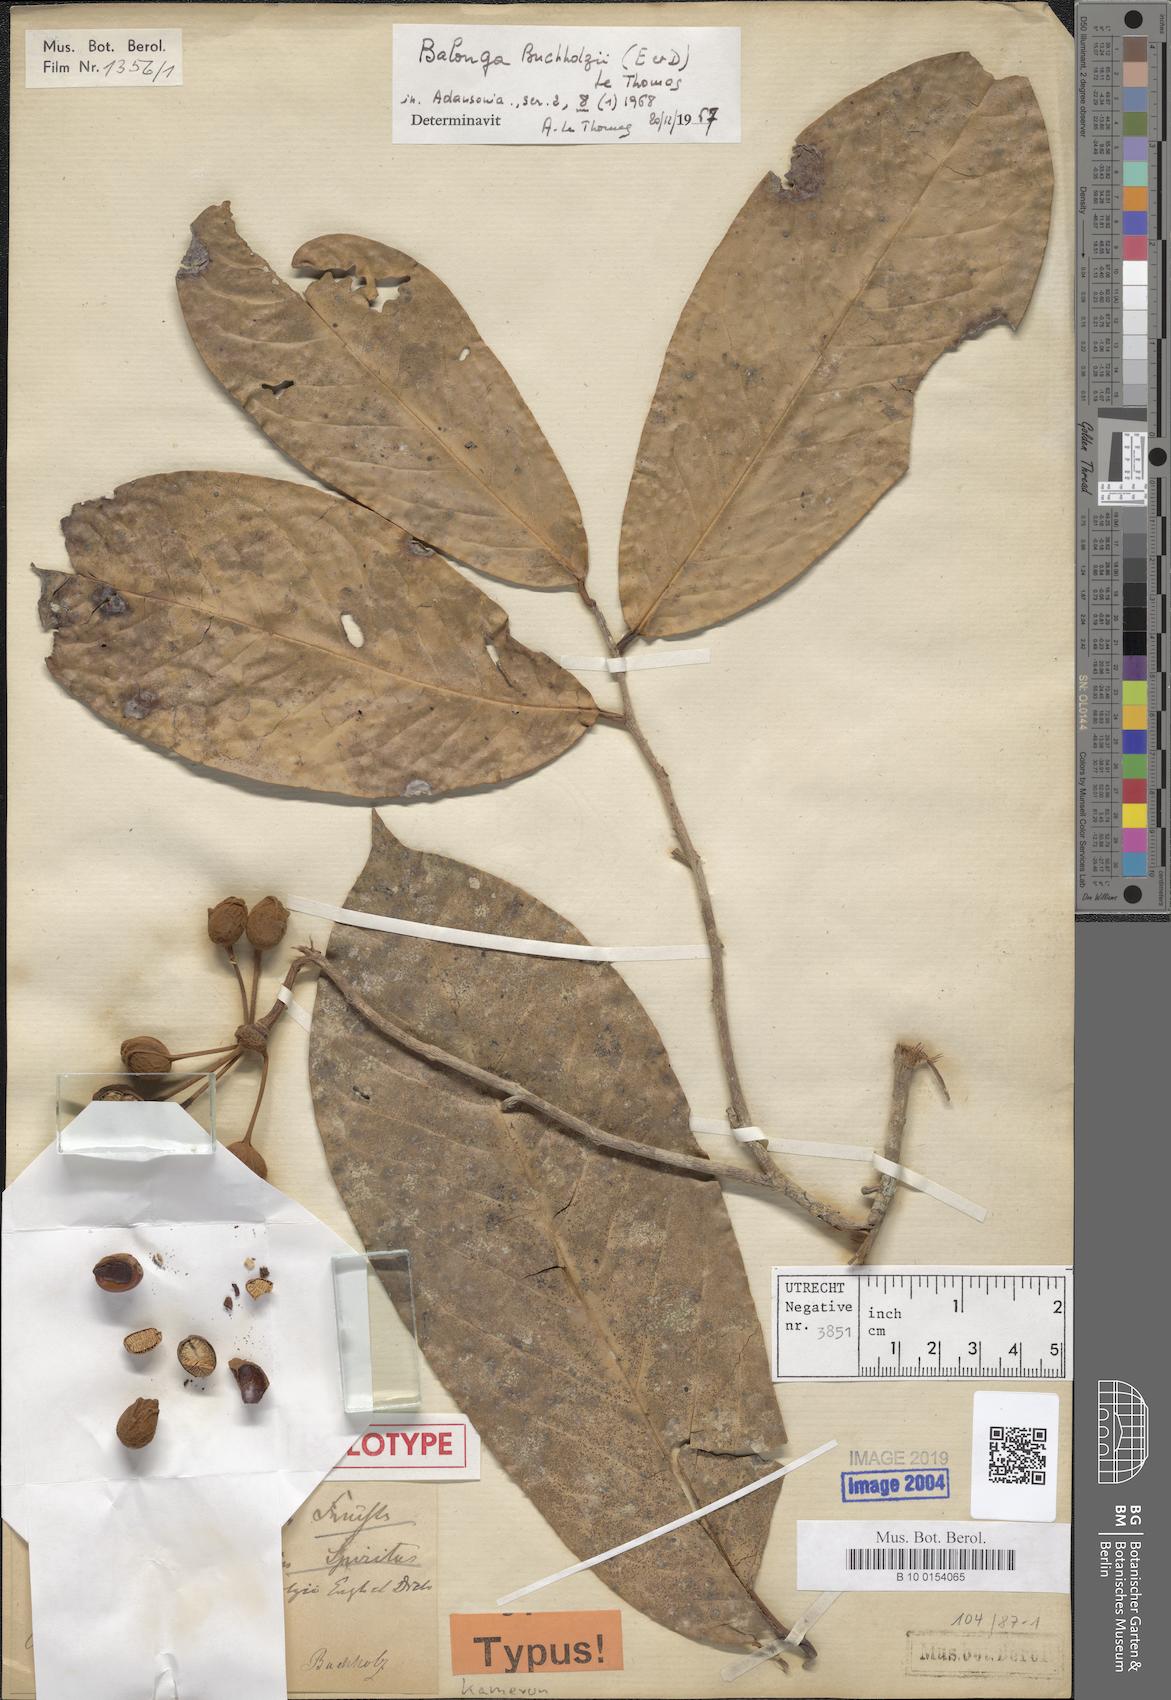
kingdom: Plantae
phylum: Tracheophyta
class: Magnoliopsida
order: Magnoliales
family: Annonaceae
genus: Uvaria
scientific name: Uvaria buchholzii
